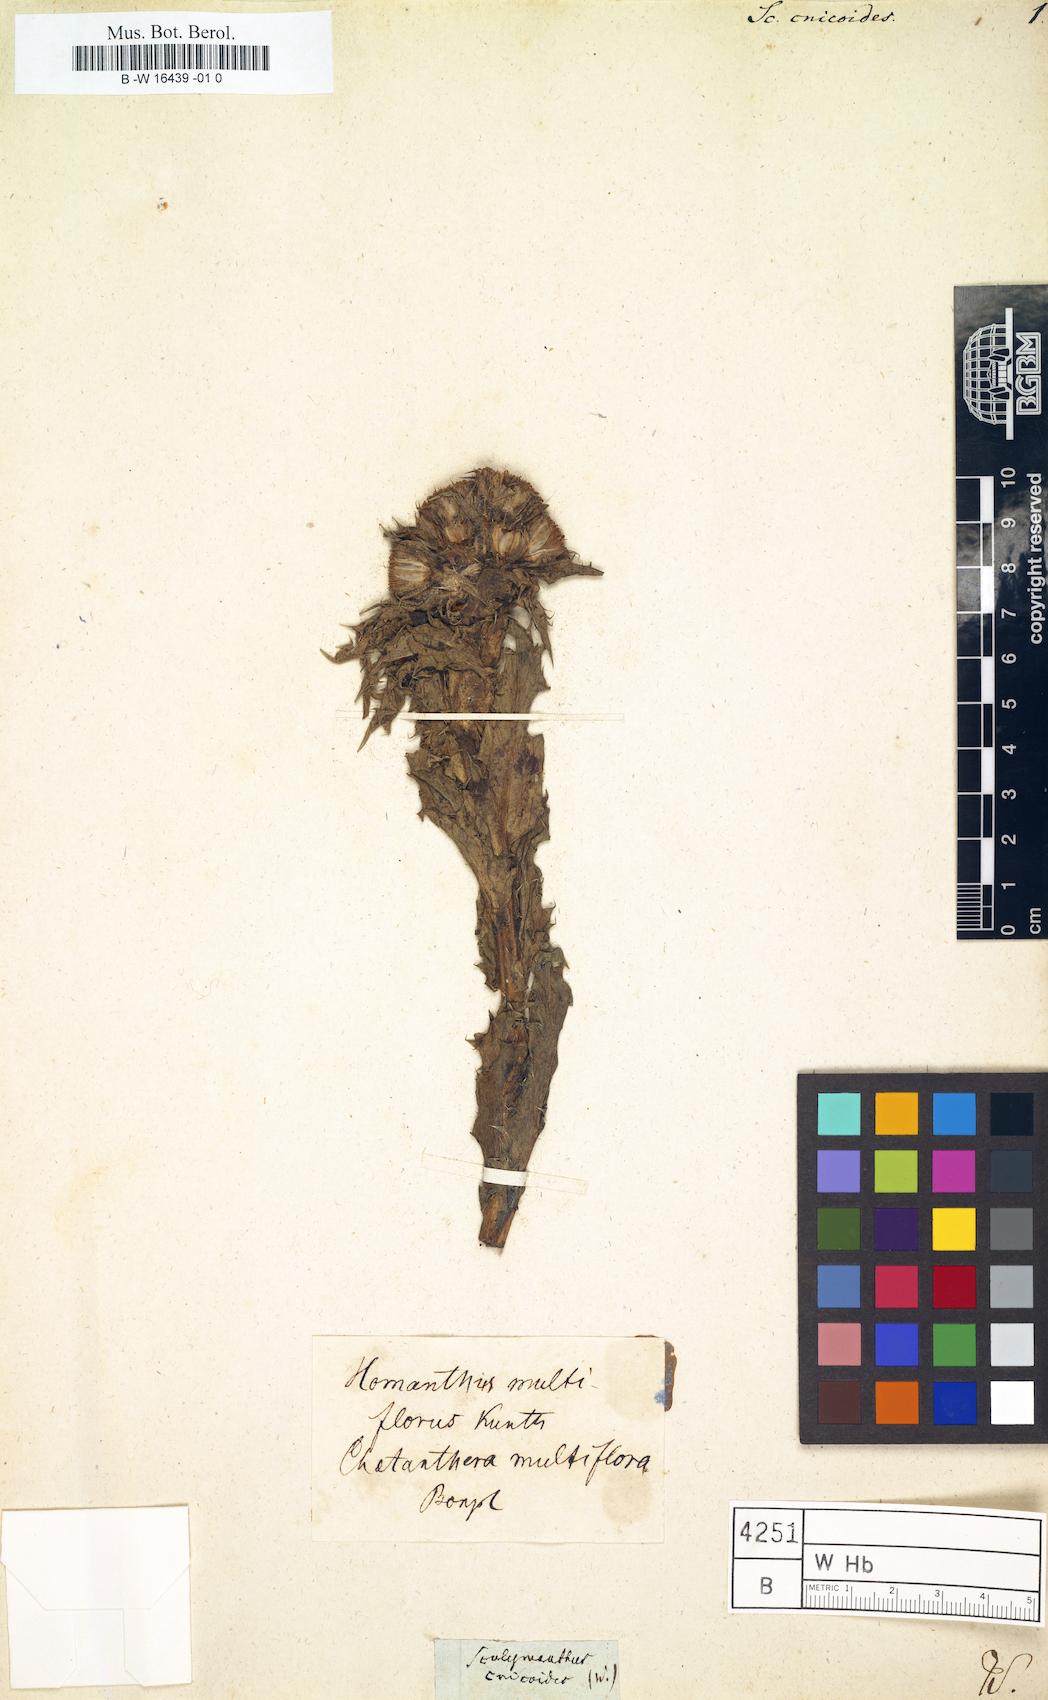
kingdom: Plantae
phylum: Tracheophyta
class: Magnoliopsida
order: Asterales
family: Asteraceae
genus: Perezia
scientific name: Perezia multiflora
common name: Perezia
